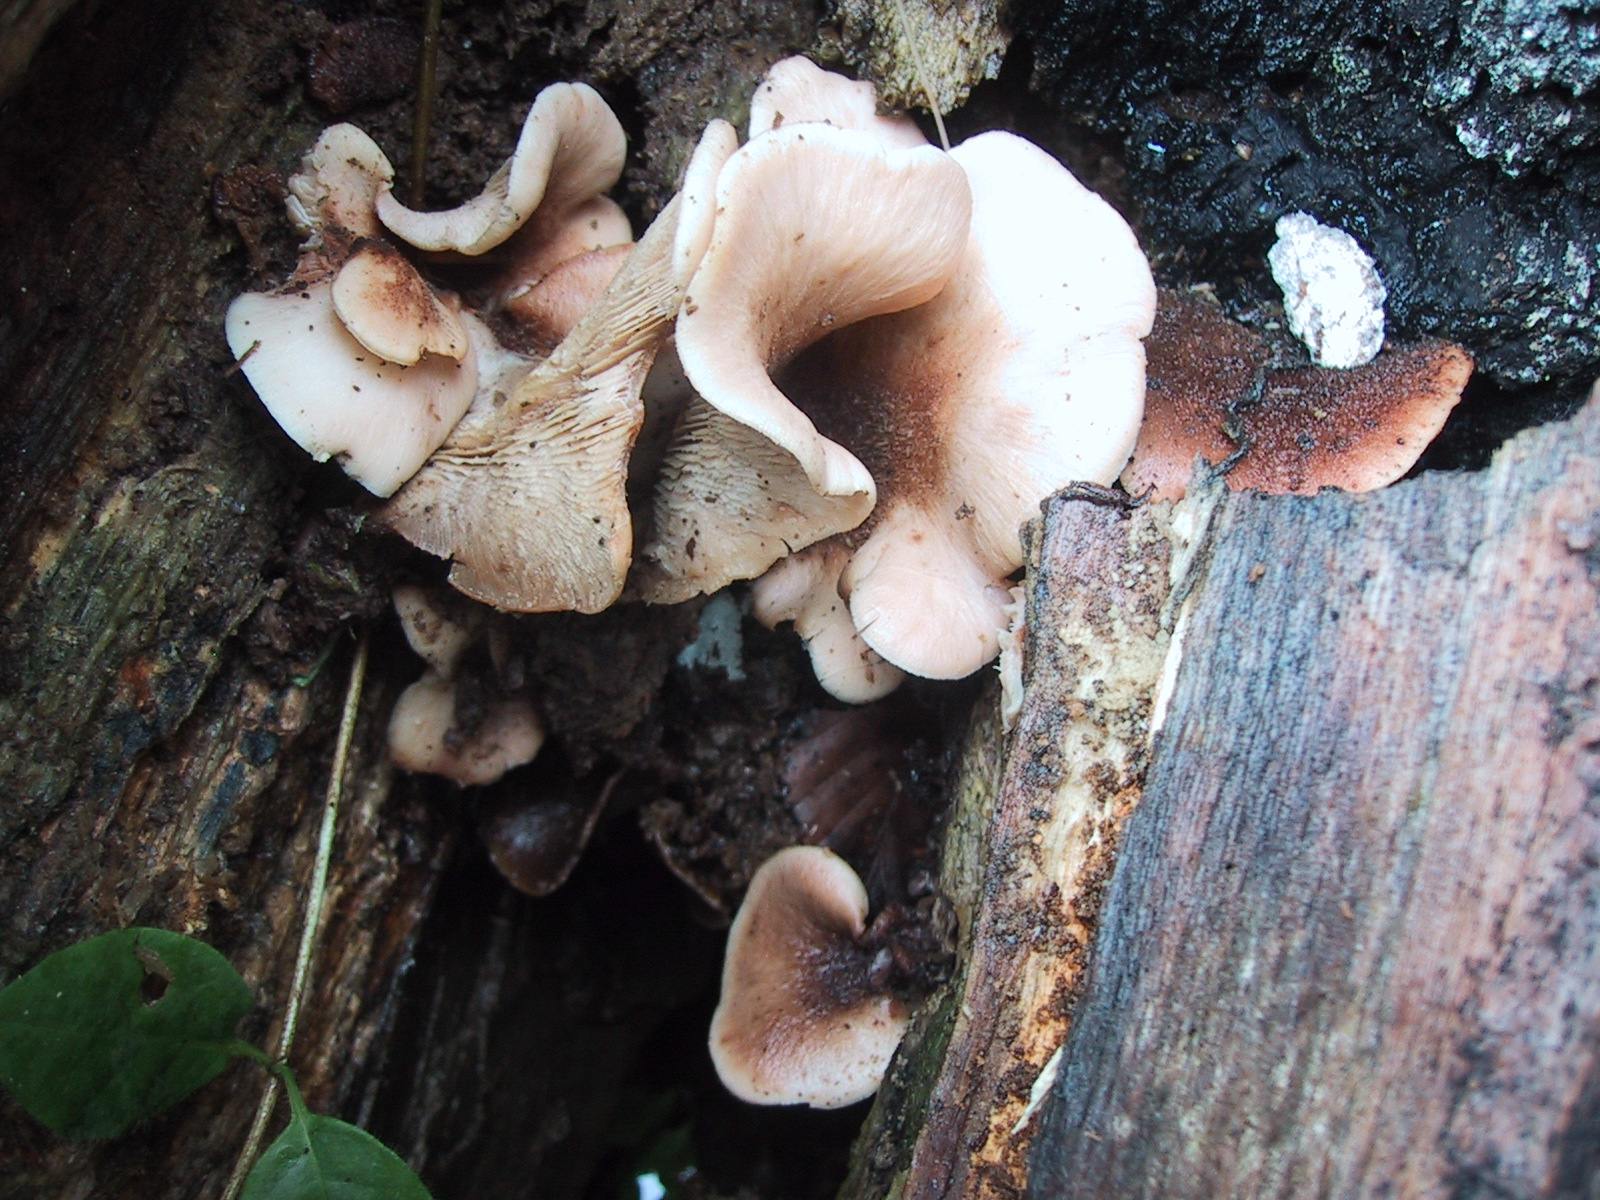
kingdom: Fungi
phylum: Basidiomycota
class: Agaricomycetes
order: Russulales
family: Auriscalpiaceae
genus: Lentinellus
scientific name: Lentinellus ursinus
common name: børstehåret savbladhat
